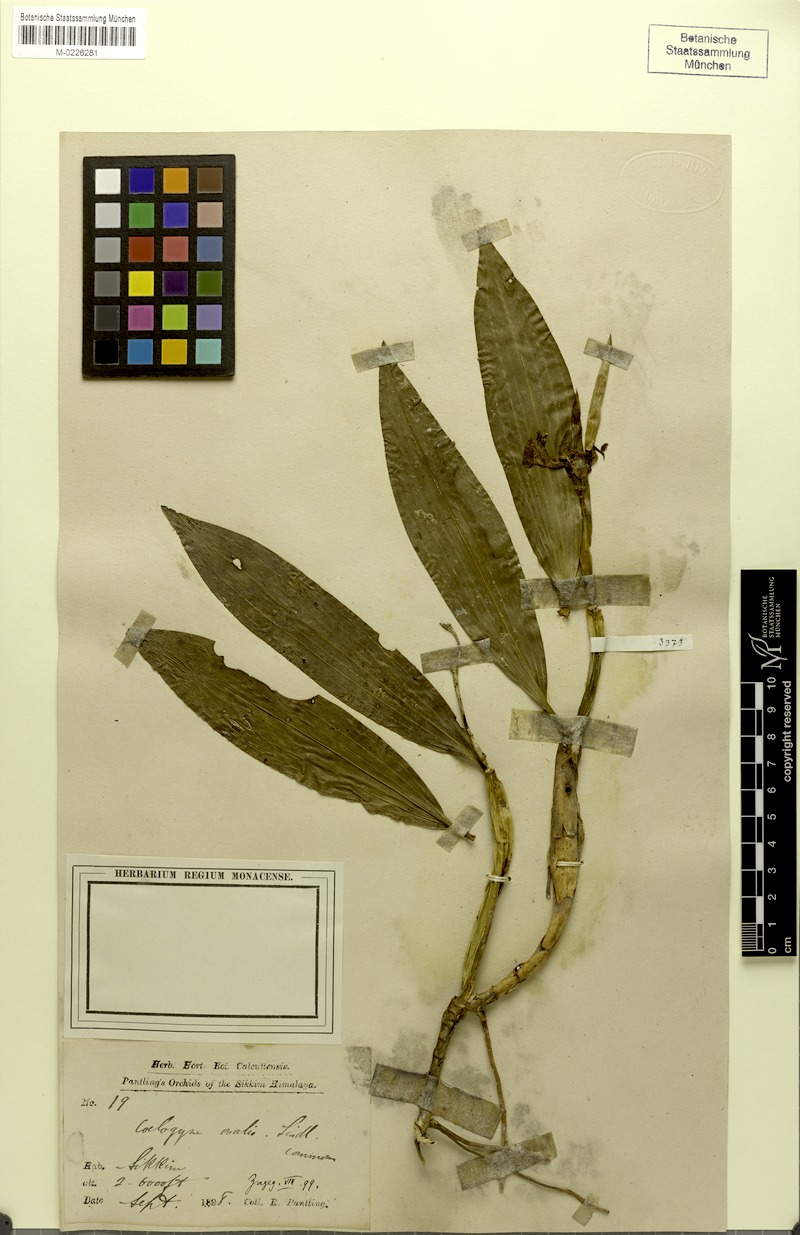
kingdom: Plantae
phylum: Tracheophyta
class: Liliopsida
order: Asparagales
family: Orchidaceae
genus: Coelogyne
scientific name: Coelogyne ovalis
